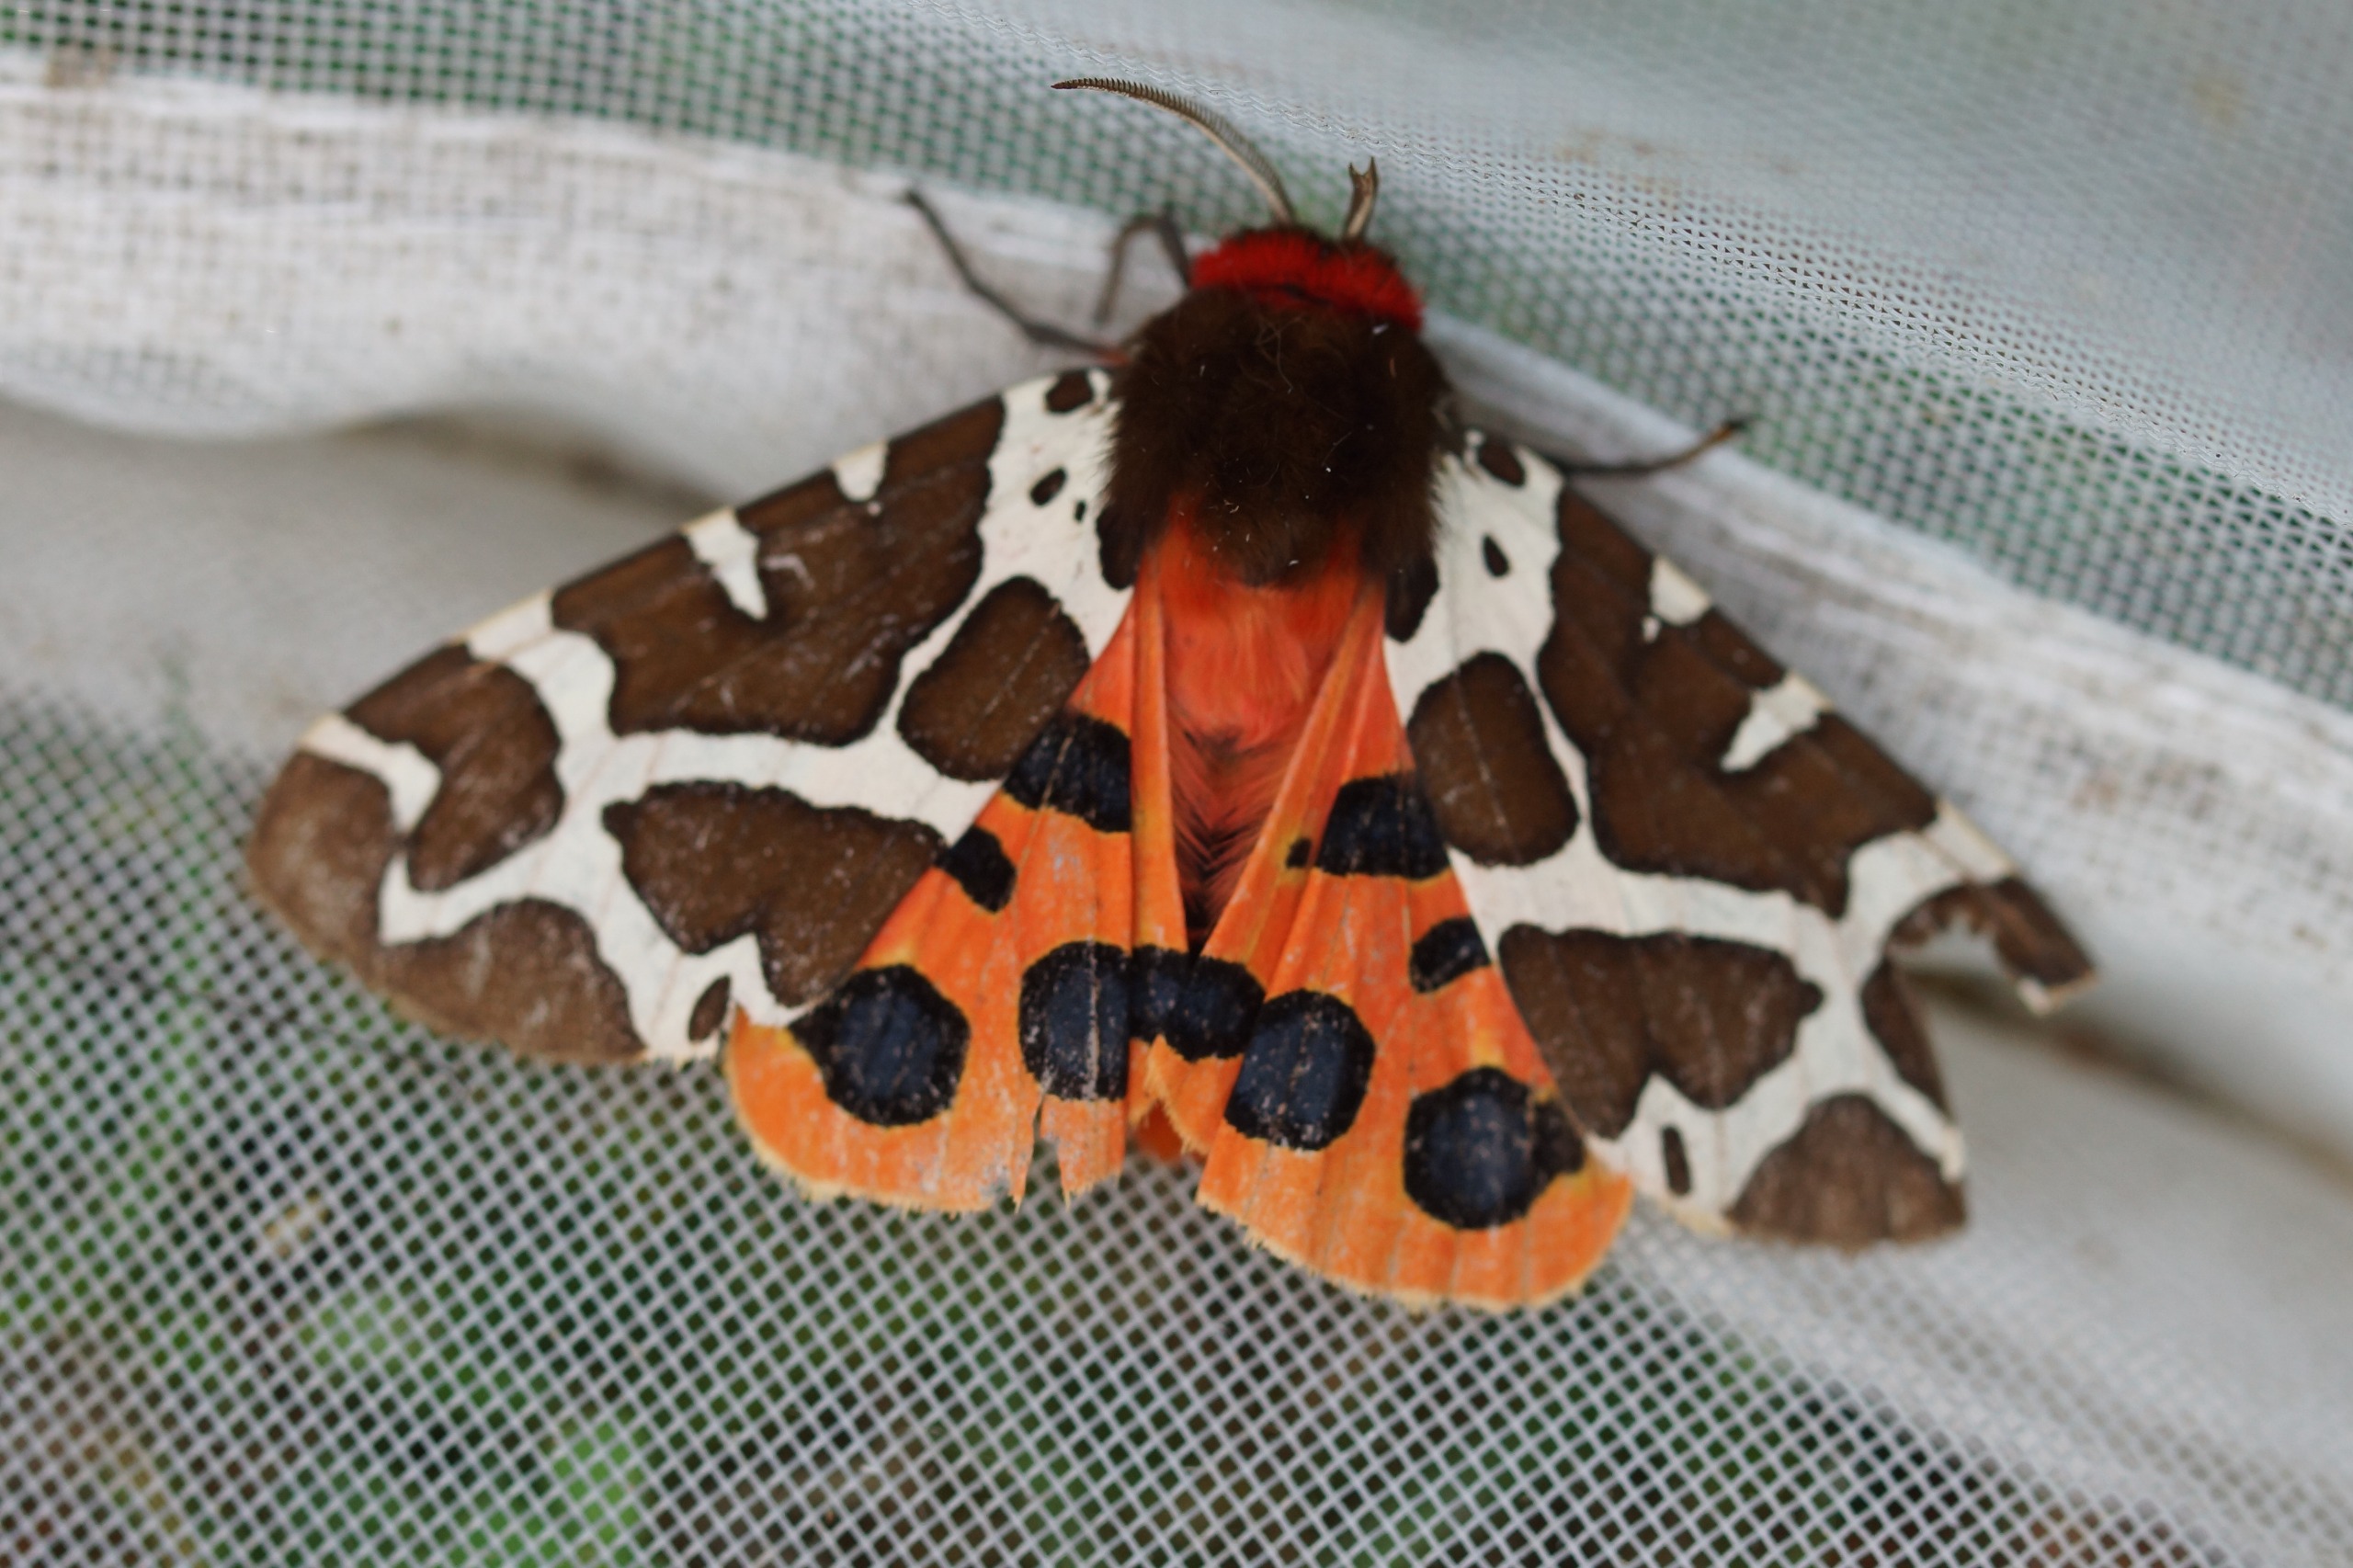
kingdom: Animalia
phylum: Arthropoda
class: Insecta
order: Lepidoptera
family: Erebidae
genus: Arctia
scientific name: Arctia caja
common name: Brun bjørn
